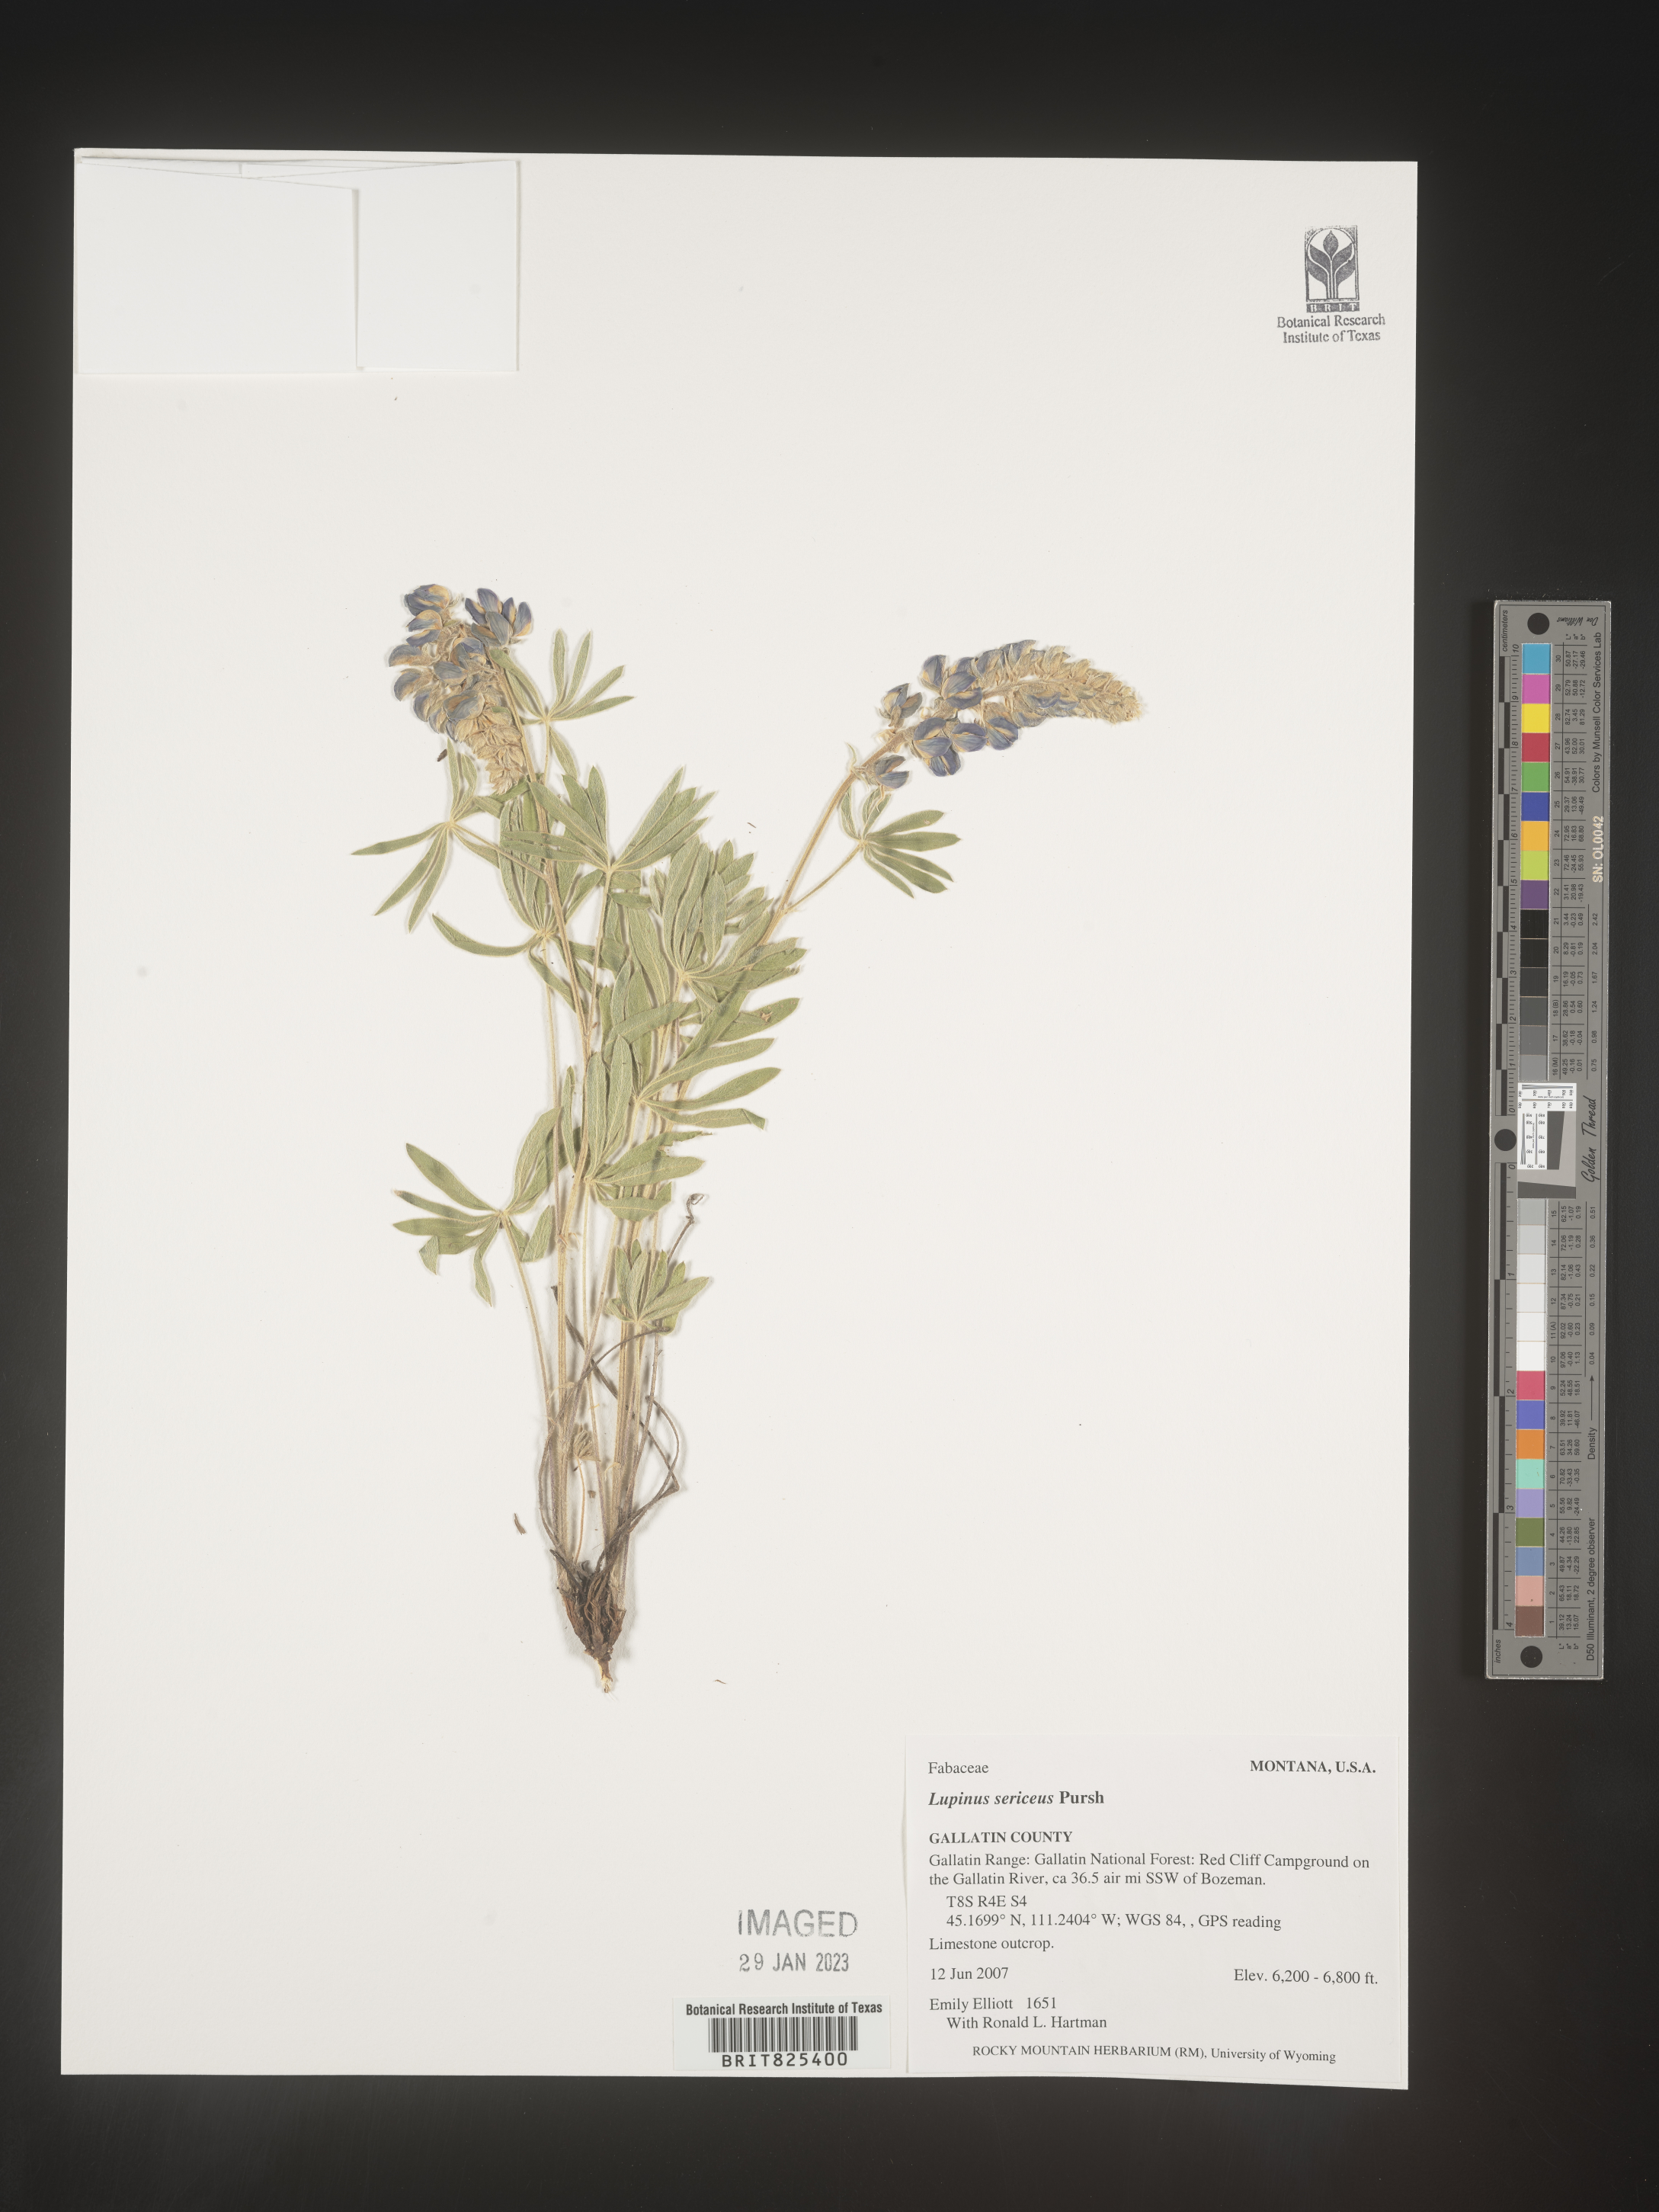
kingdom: Plantae
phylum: Tracheophyta
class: Magnoliopsida
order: Fabales
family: Fabaceae
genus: Lupinus
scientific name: Lupinus sericeus
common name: Silky lupine
